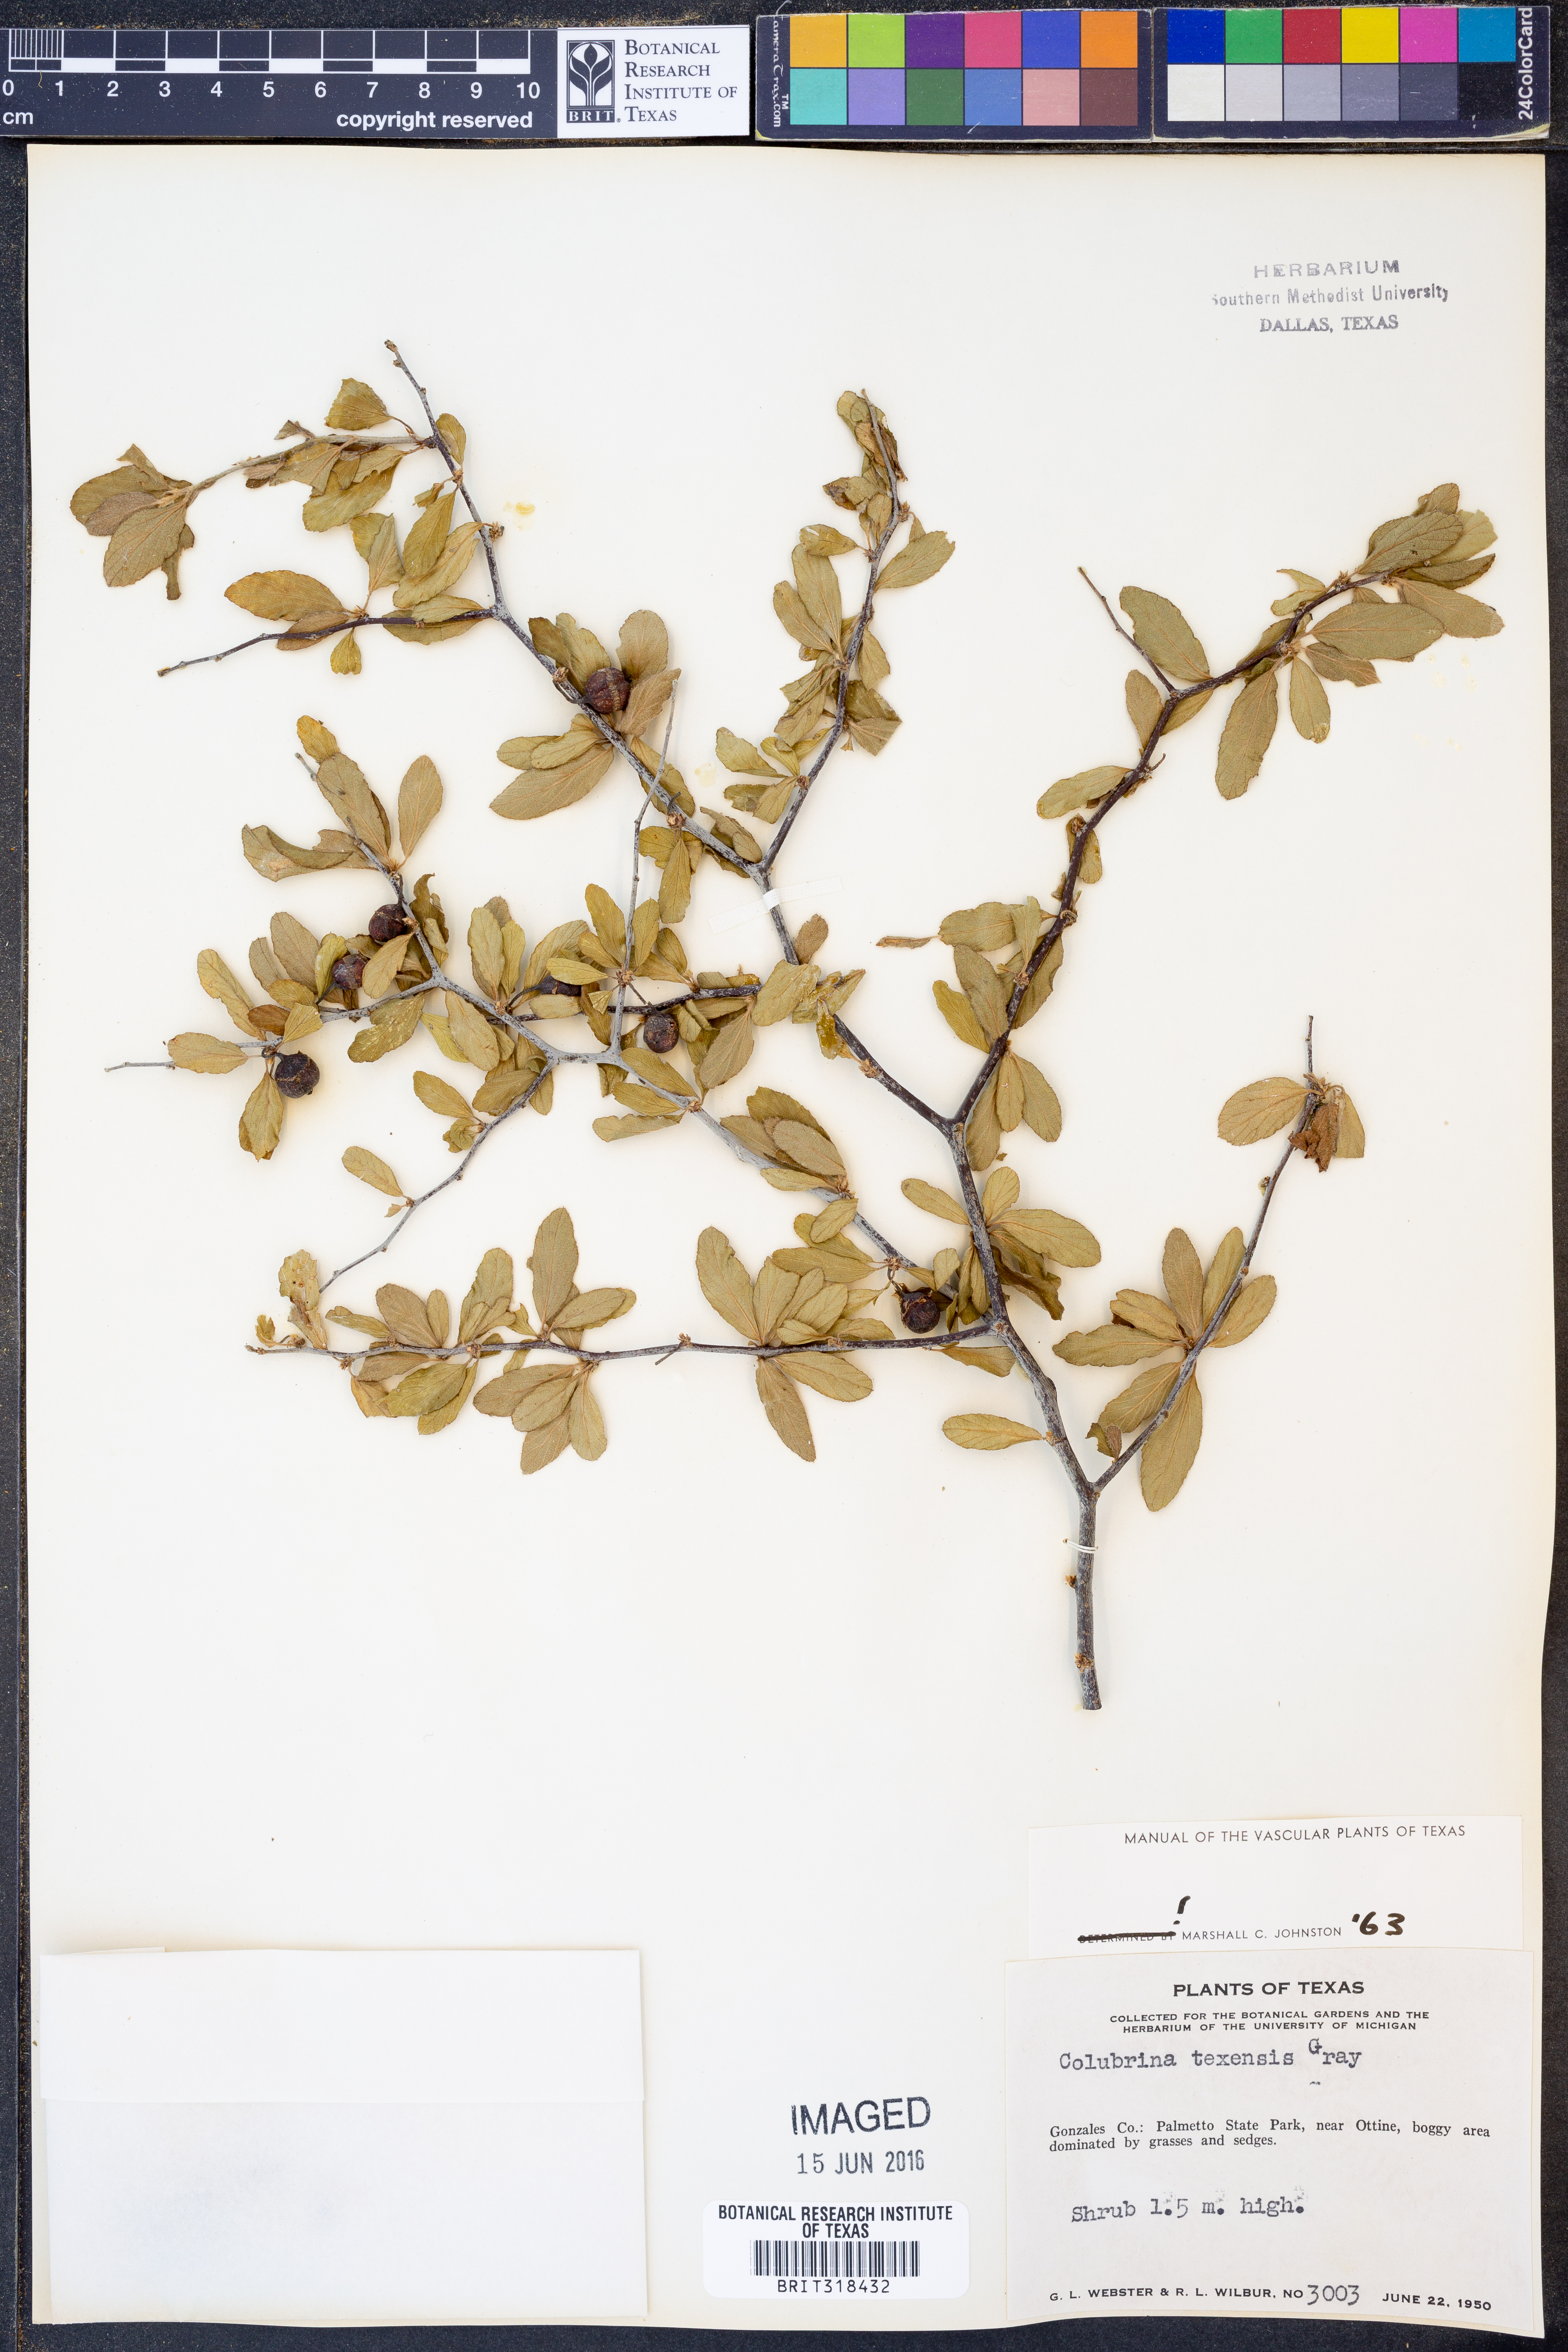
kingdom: Plantae
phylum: Tracheophyta
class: Magnoliopsida
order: Rosales
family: Rhamnaceae
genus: Colubrina
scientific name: Colubrina texensis
